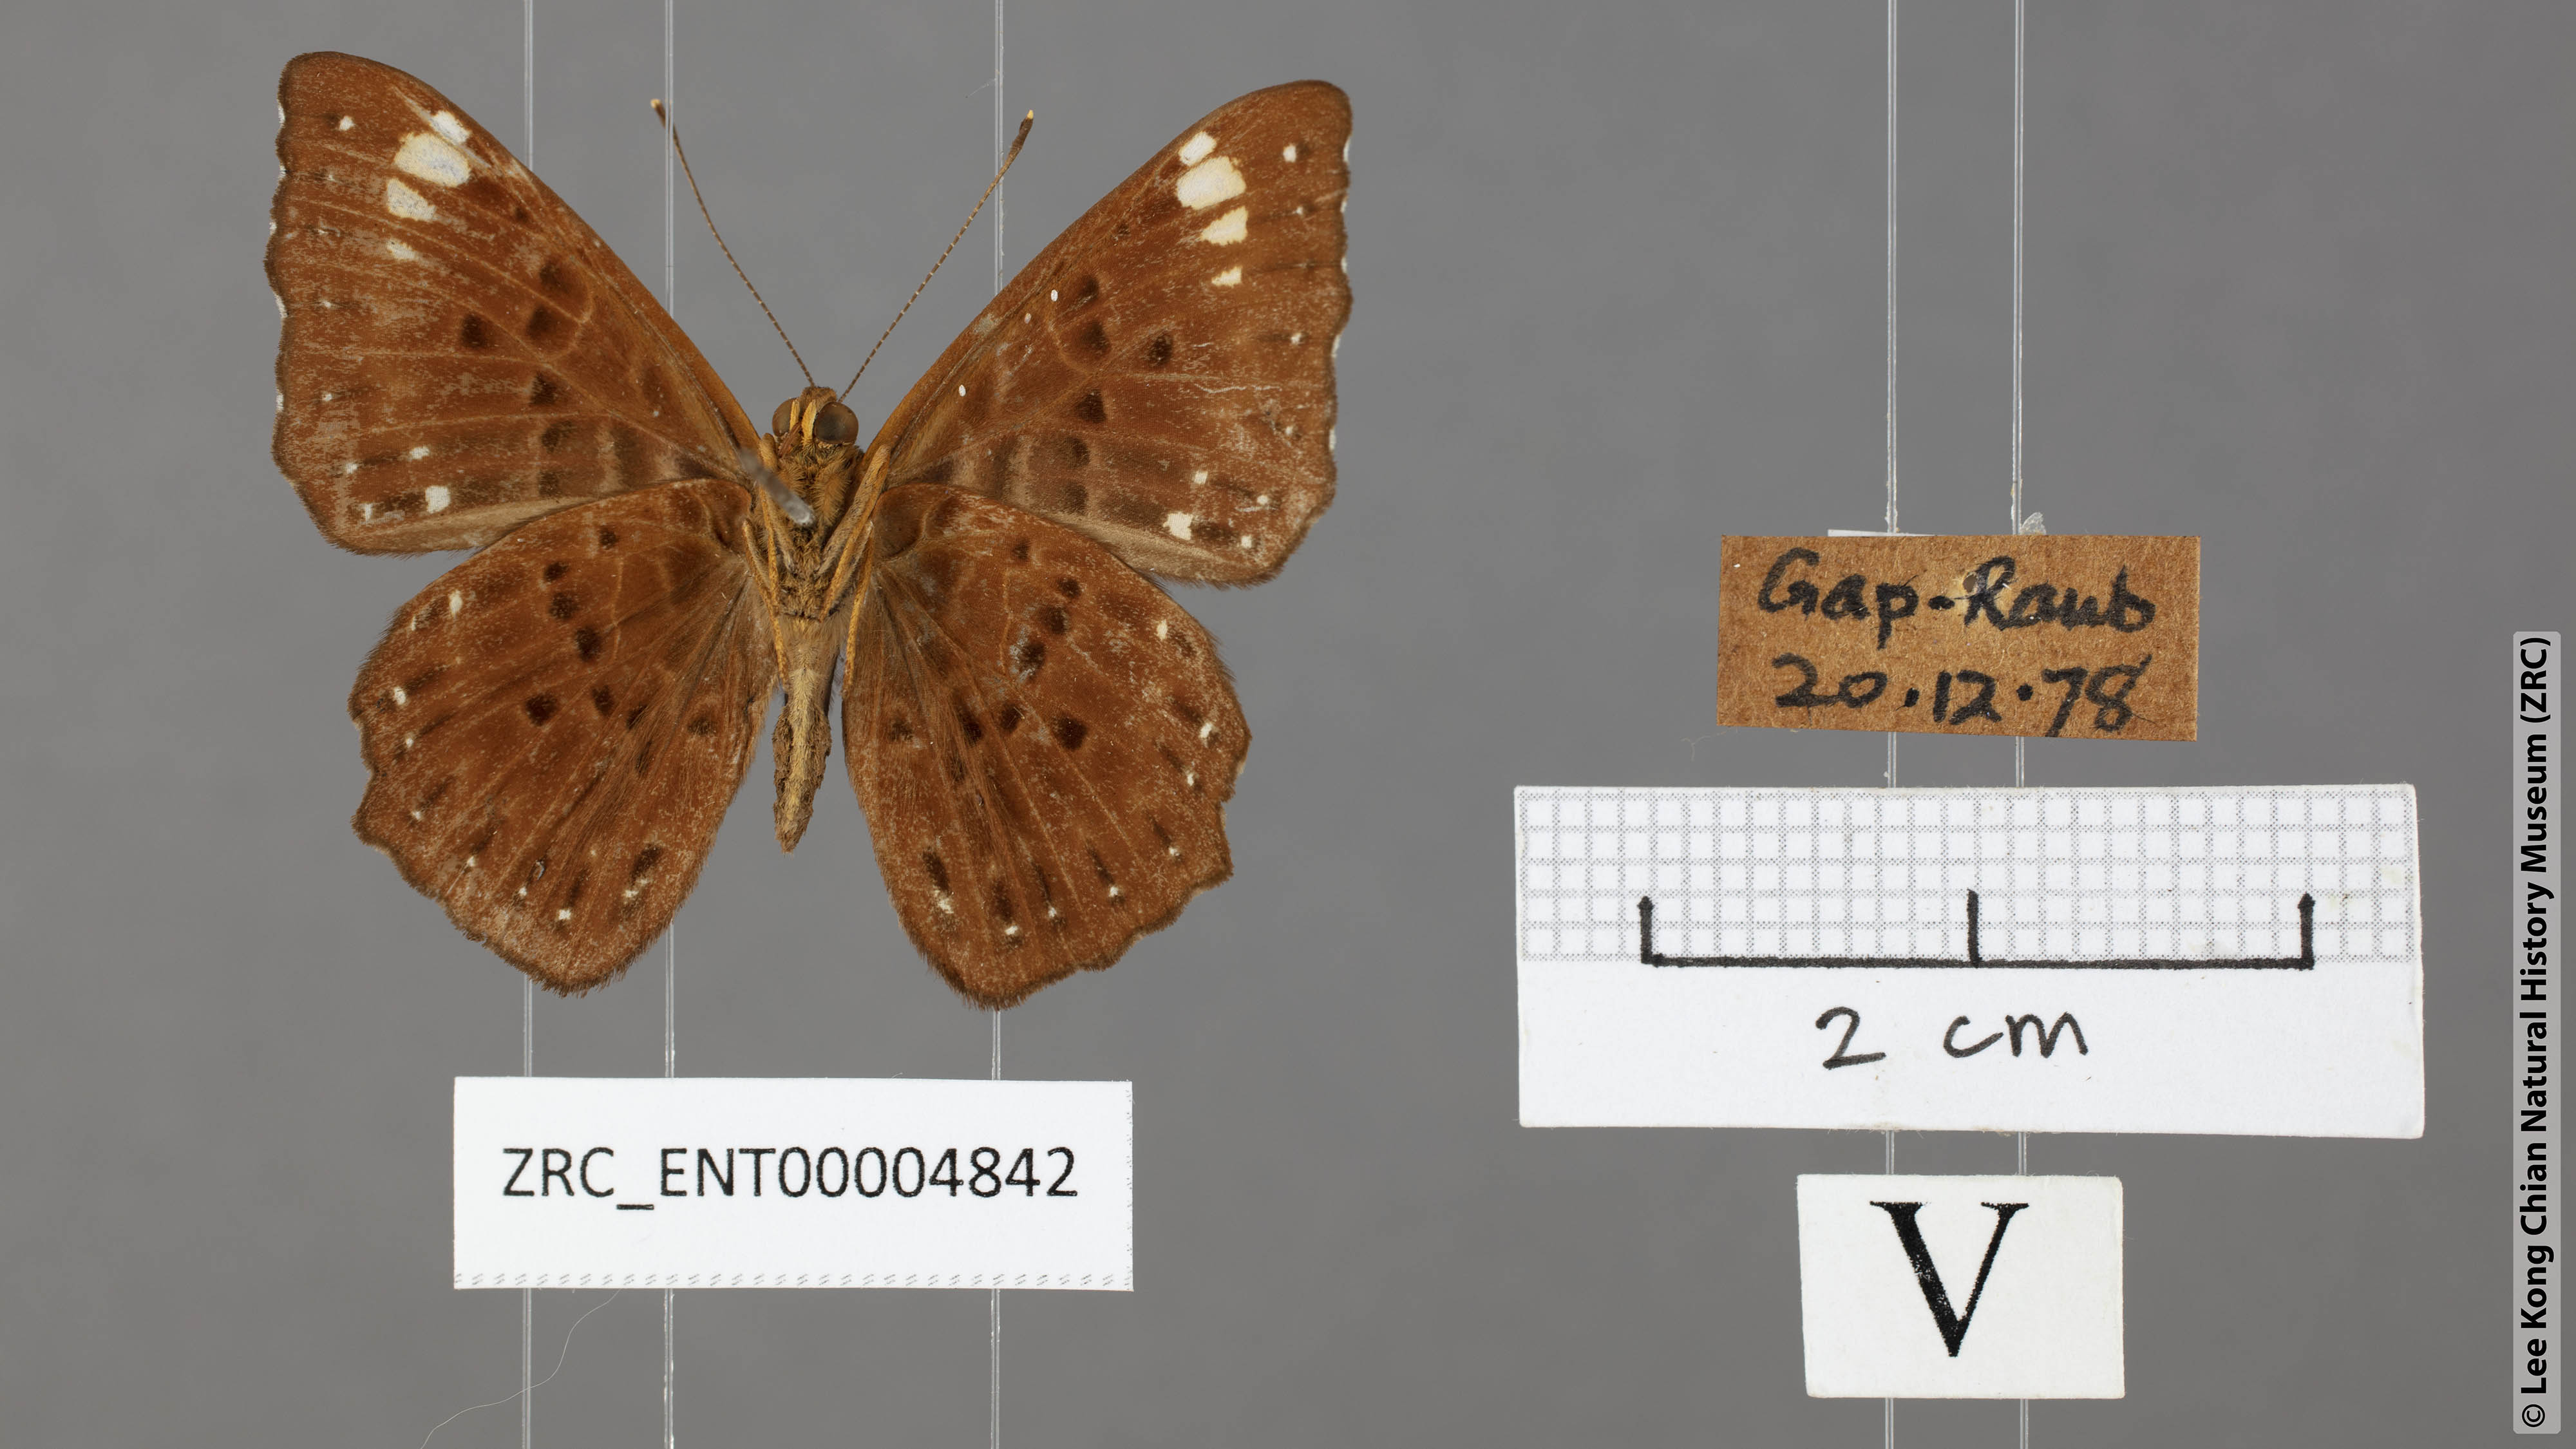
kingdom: Animalia
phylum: Arthropoda
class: Insecta
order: Lepidoptera
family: Riodinidae
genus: Zemeros
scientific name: Zemeros flegyas
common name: Punchinello
